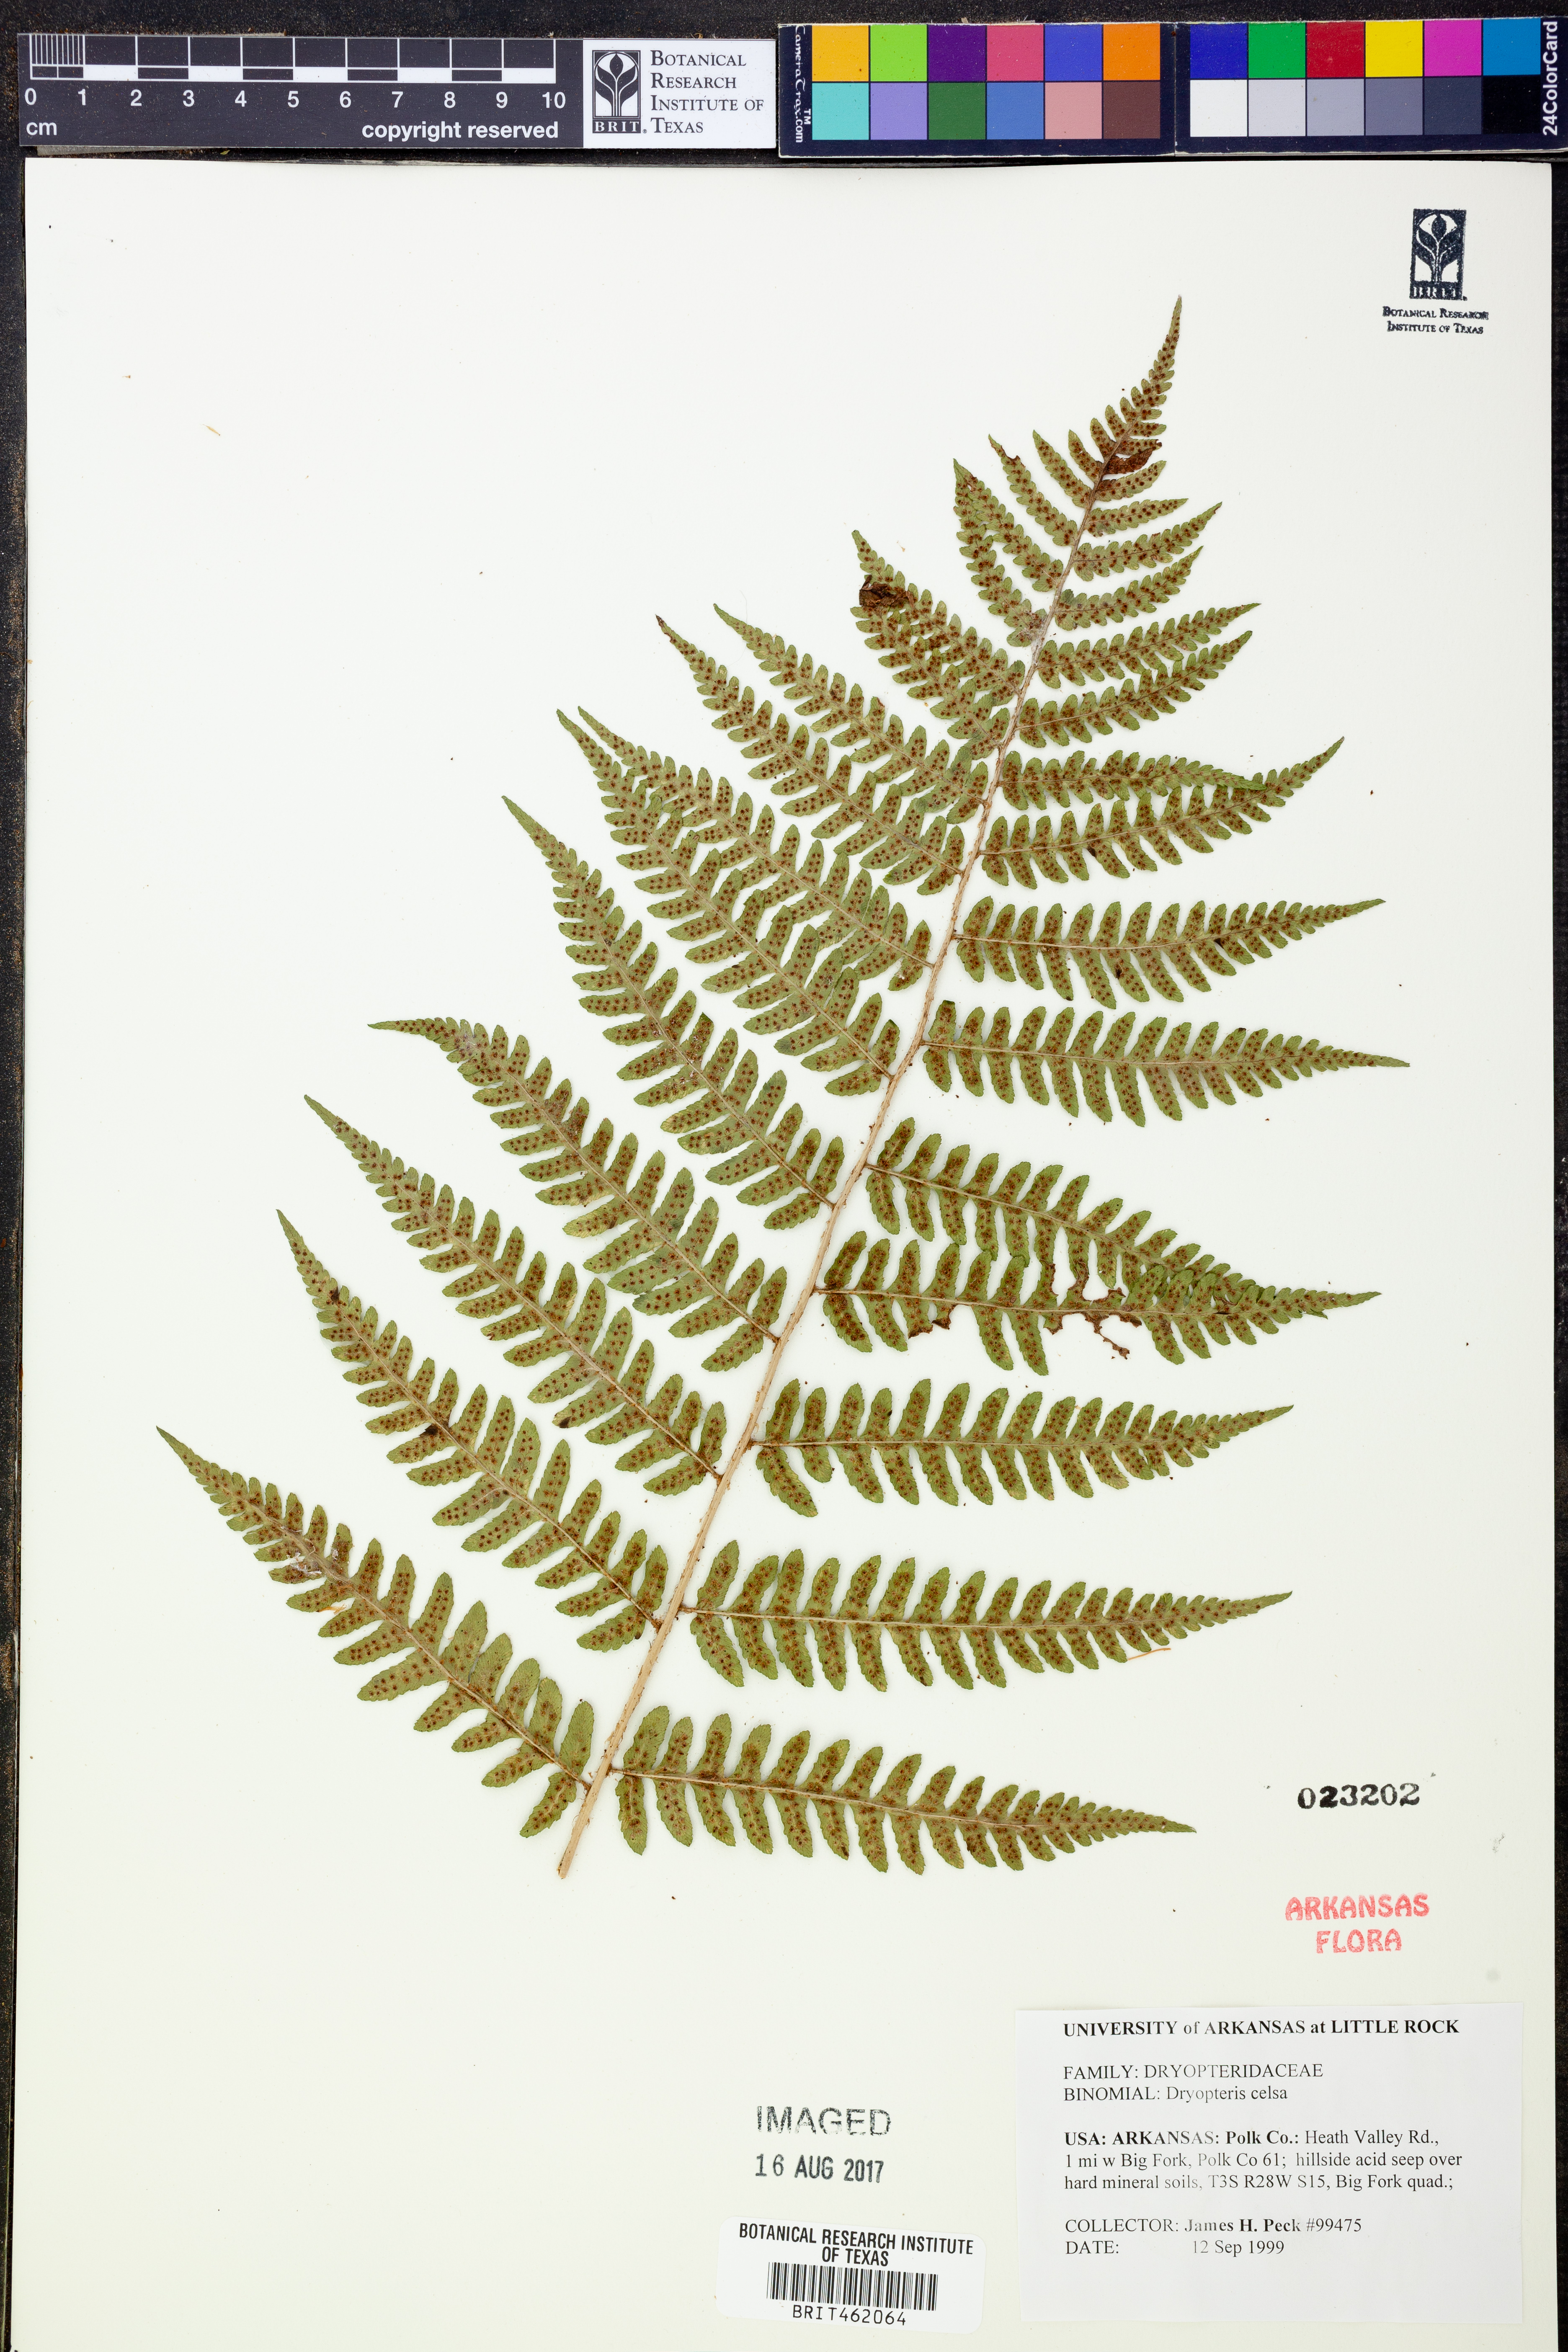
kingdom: Plantae
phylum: Tracheophyta
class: Polypodiopsida
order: Polypodiales
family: Dryopteridaceae
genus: Dryopteris
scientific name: Dryopteris celsa
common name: Log fern
